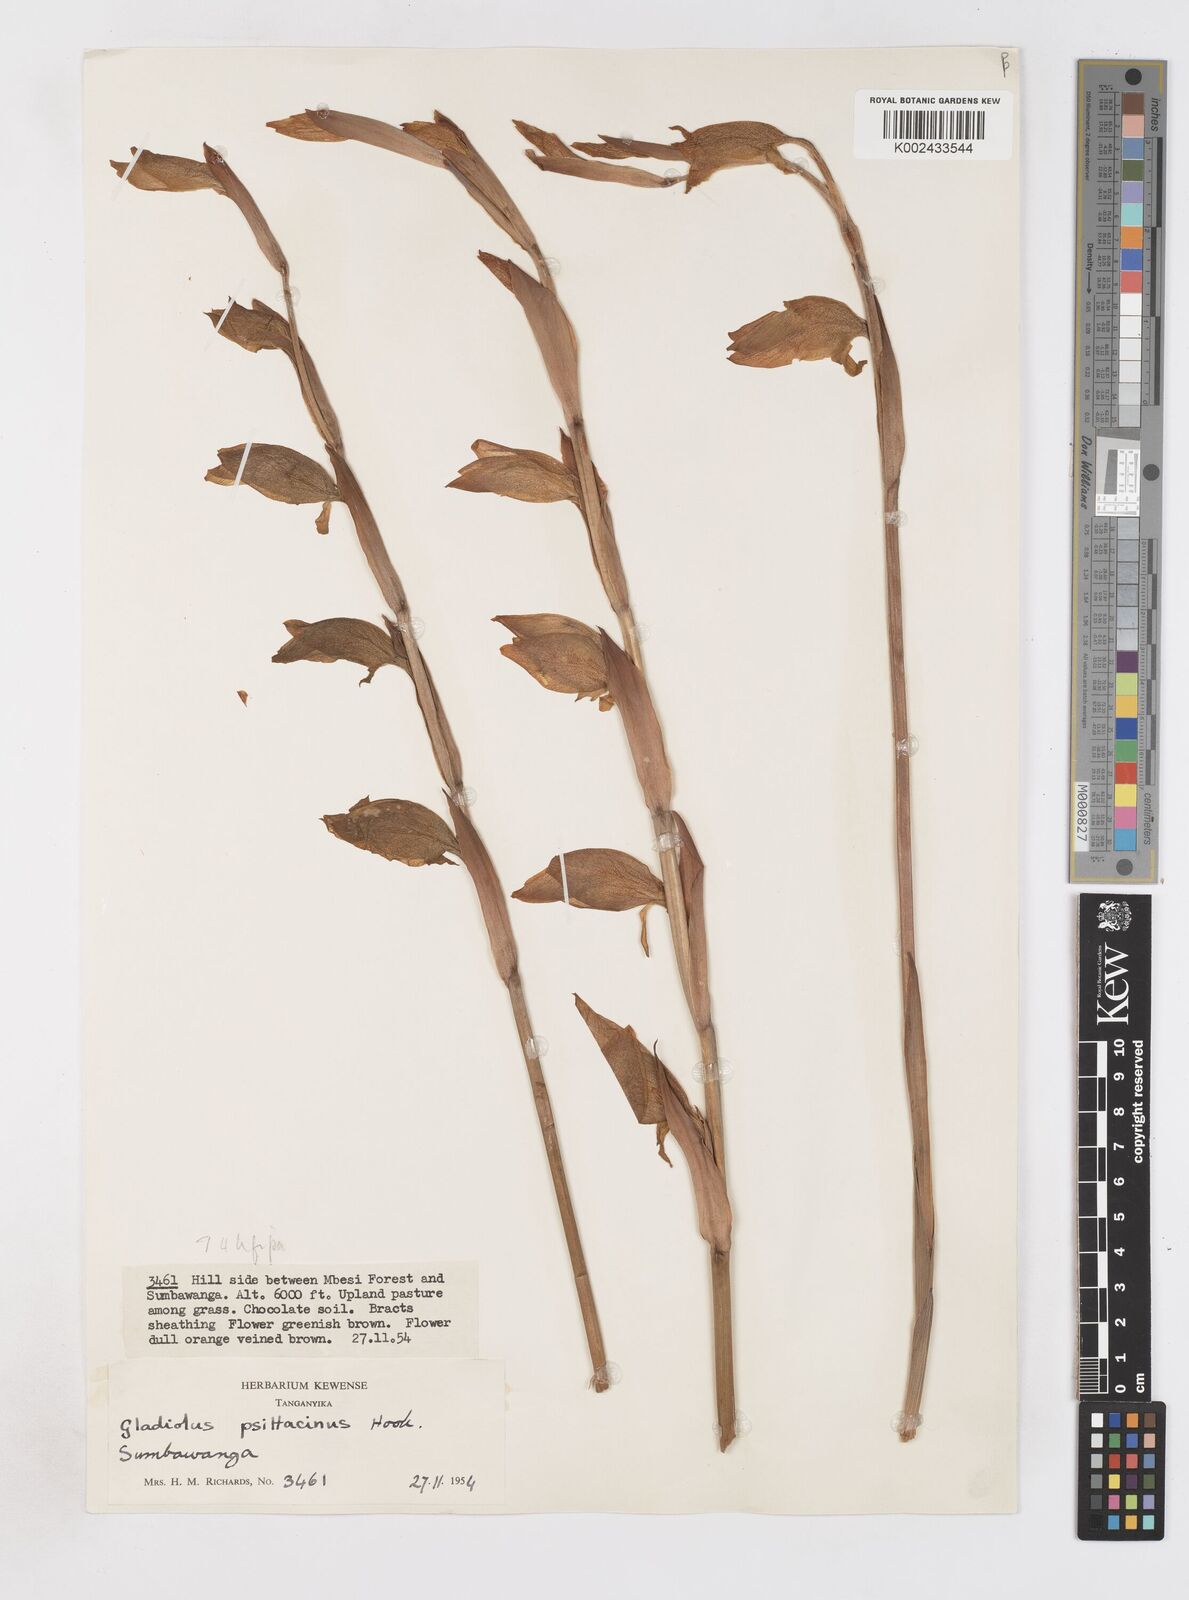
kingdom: Plantae
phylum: Tracheophyta
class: Liliopsida
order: Asparagales
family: Iridaceae
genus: Gladiolus
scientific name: Gladiolus dalenii
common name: Cornflag
